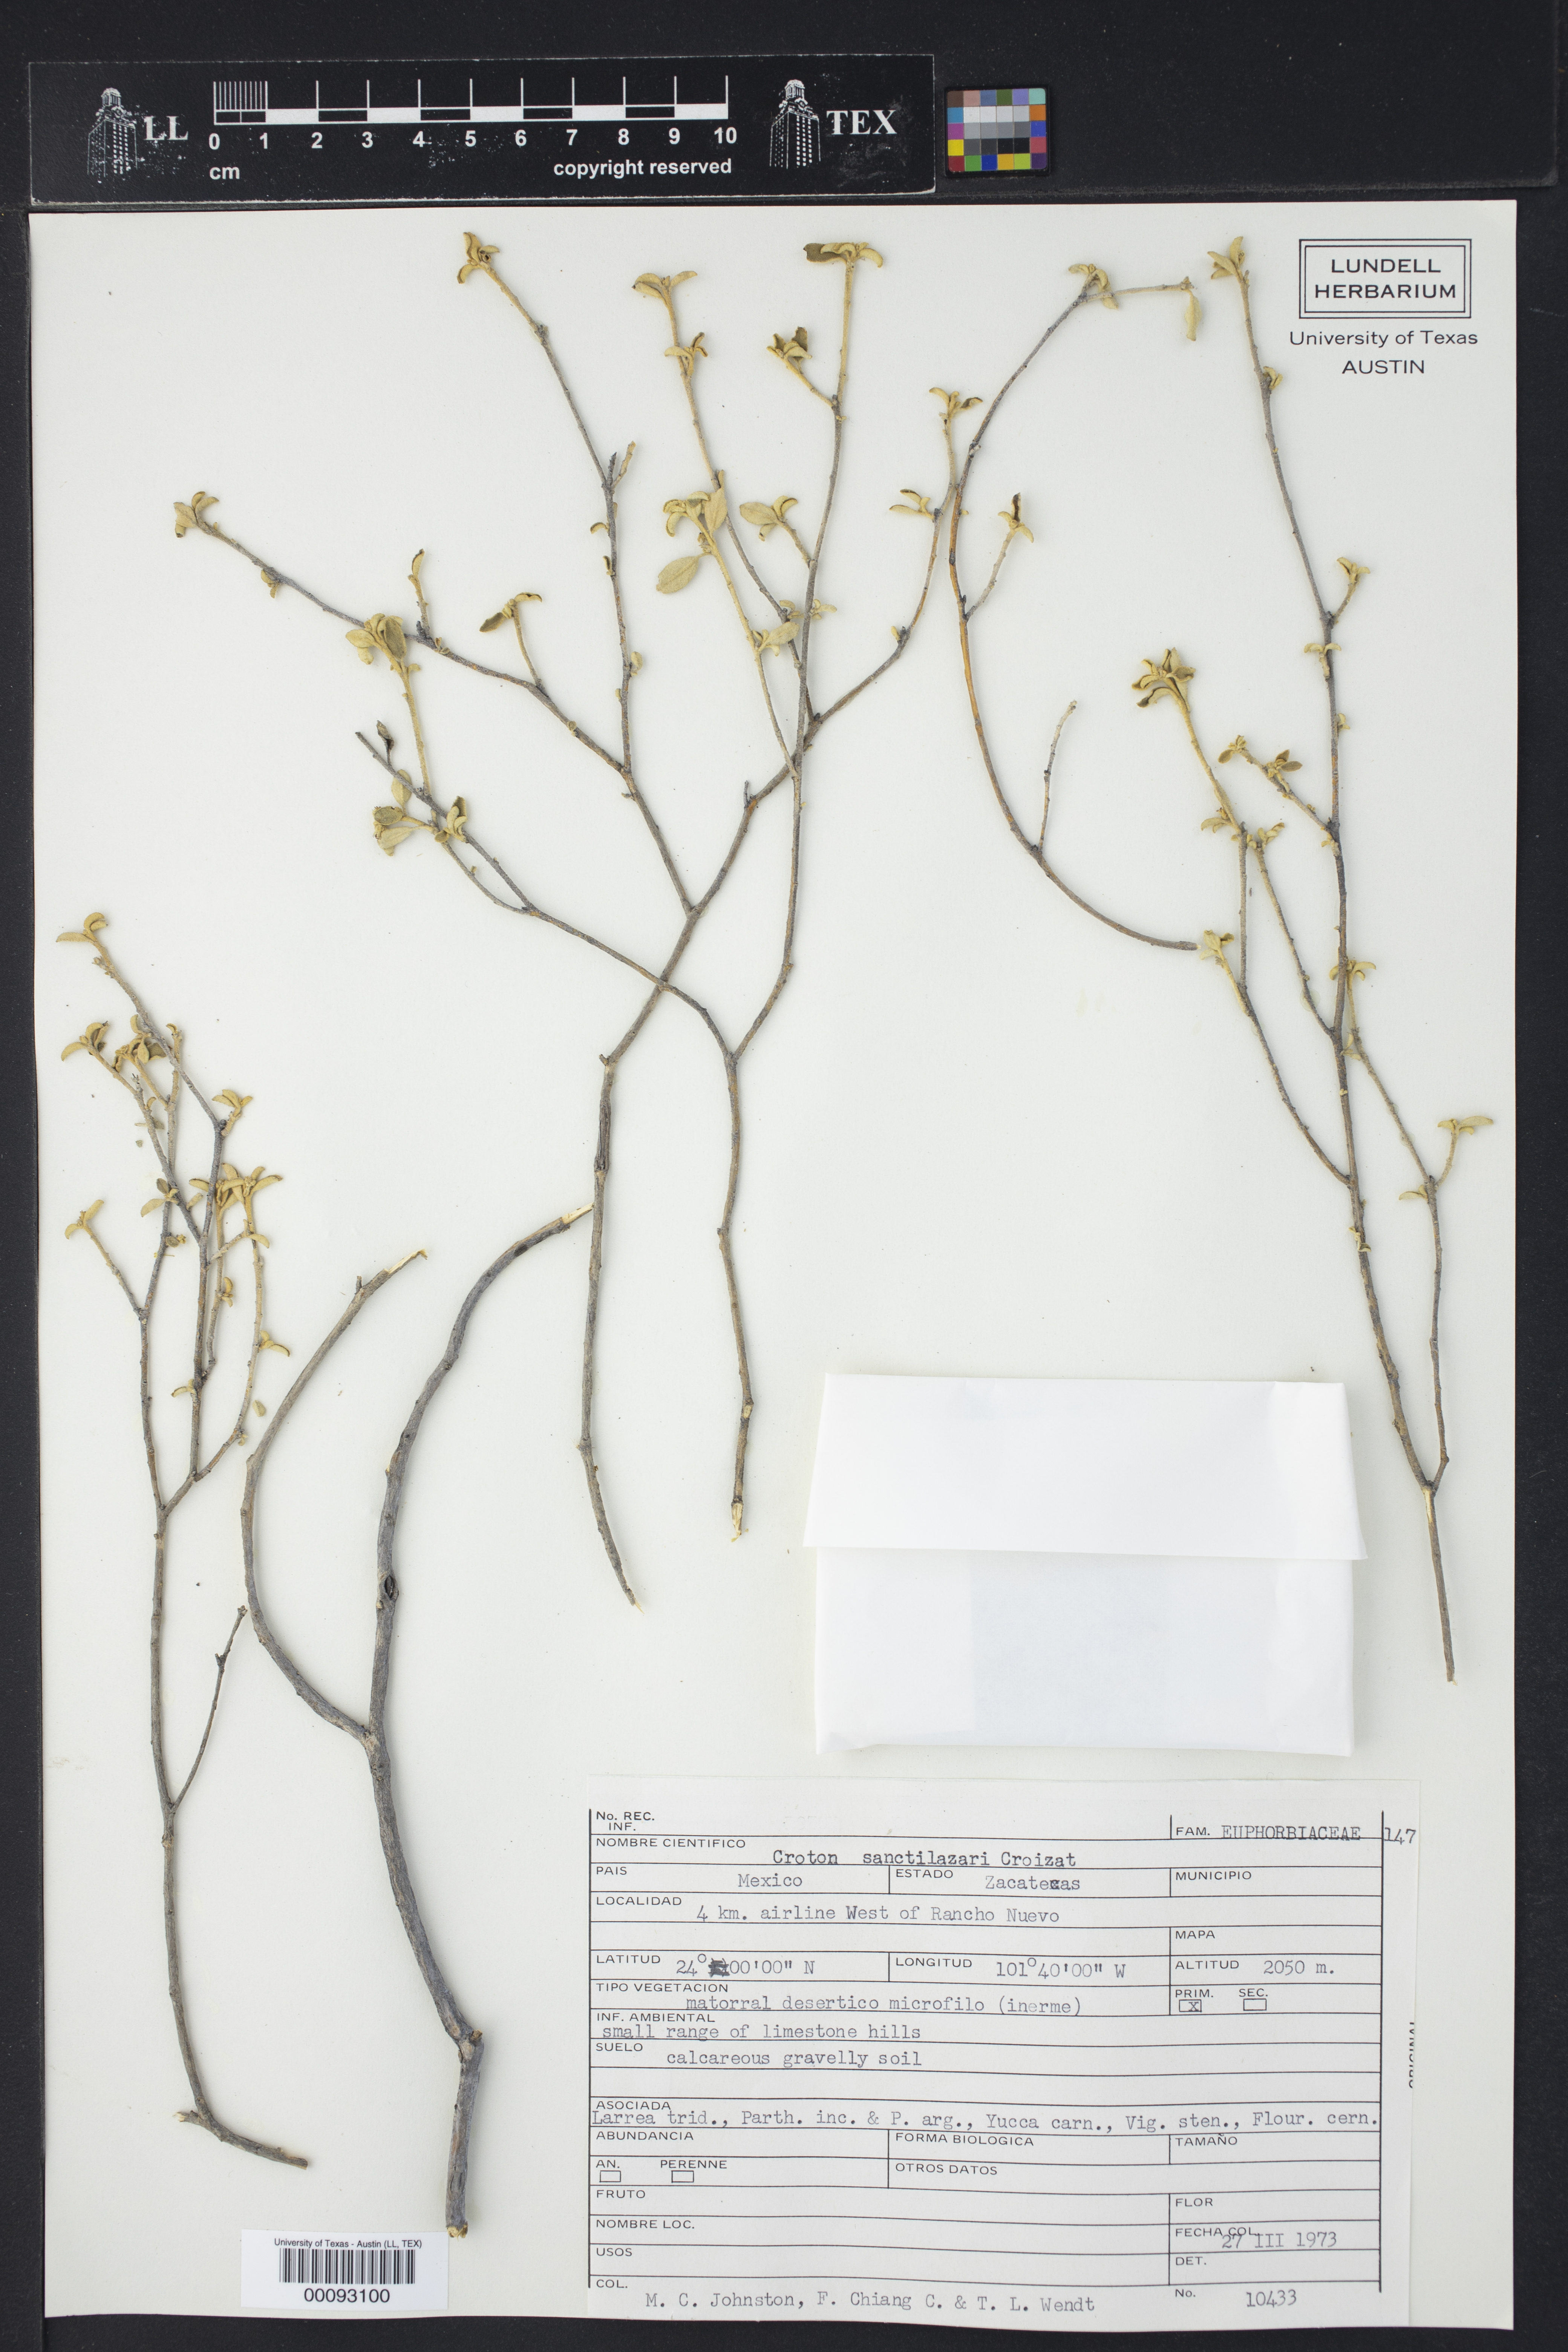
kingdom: Plantae
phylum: Tracheophyta
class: Magnoliopsida
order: Malpighiales
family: Euphorbiaceae
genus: Croton
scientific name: Croton sancti-lazari
